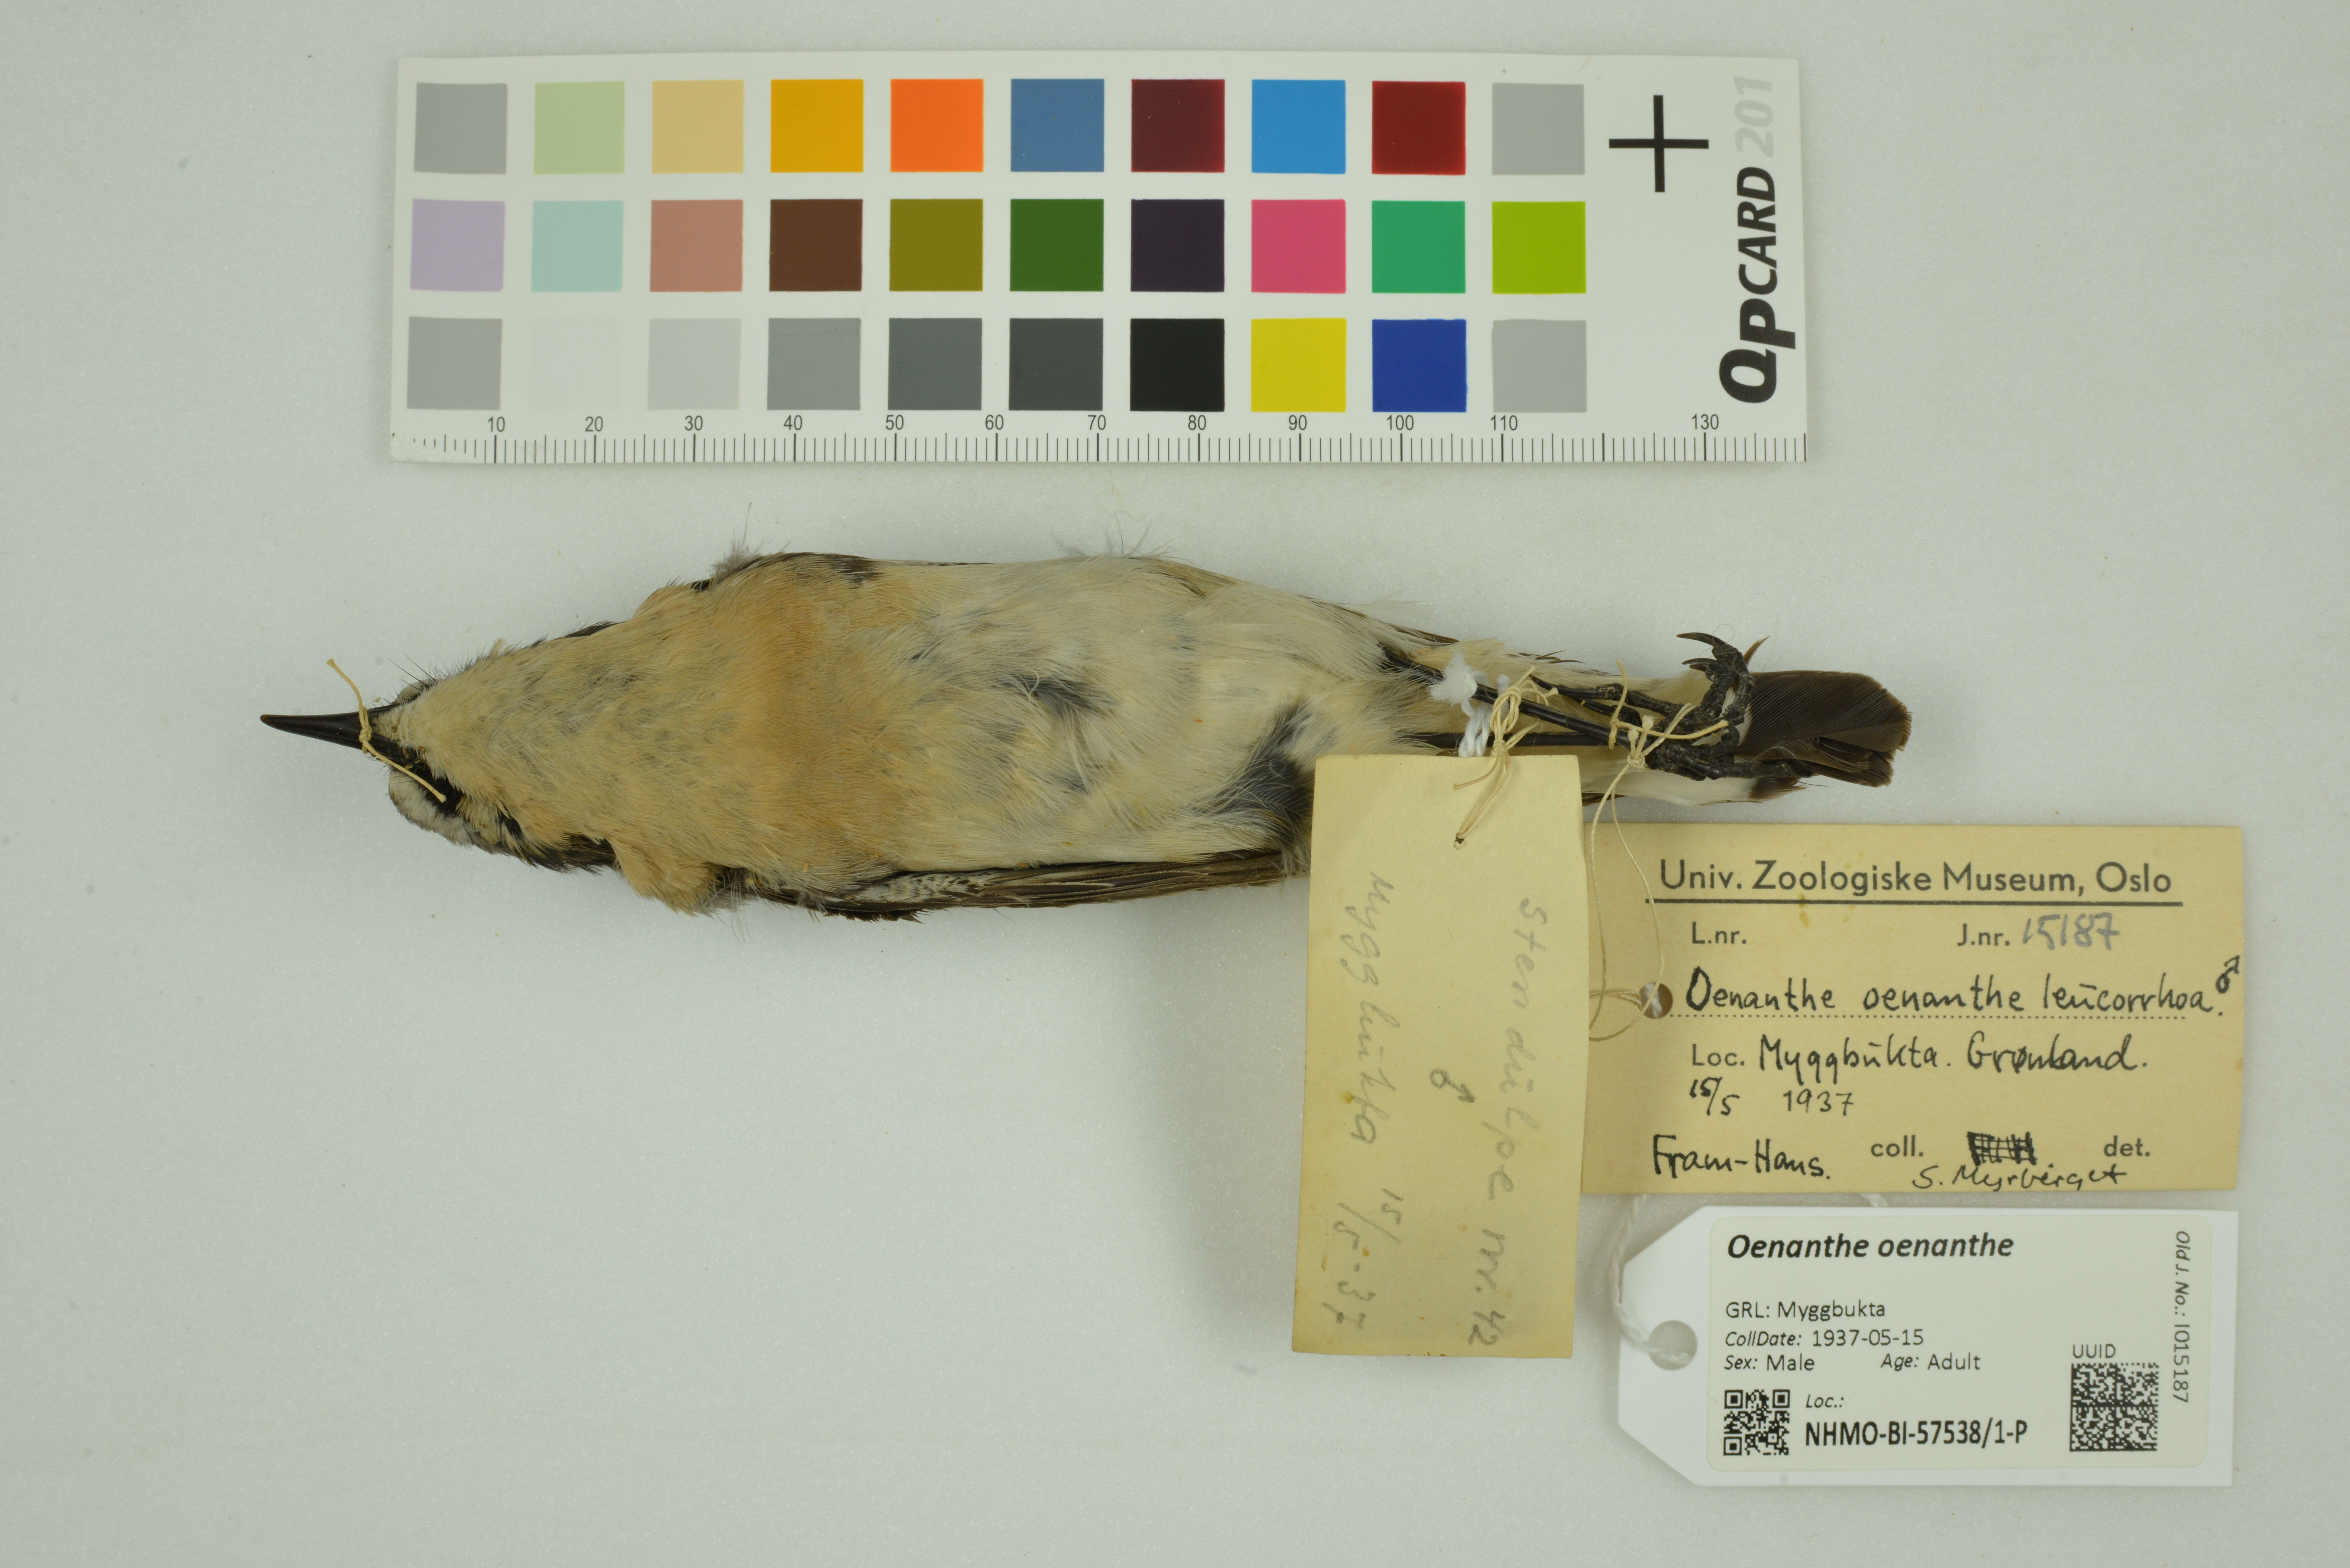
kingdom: Animalia
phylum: Chordata
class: Aves
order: Passeriformes
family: Muscicapidae
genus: Oenanthe
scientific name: Oenanthe oenanthe
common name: Northern wheatear
